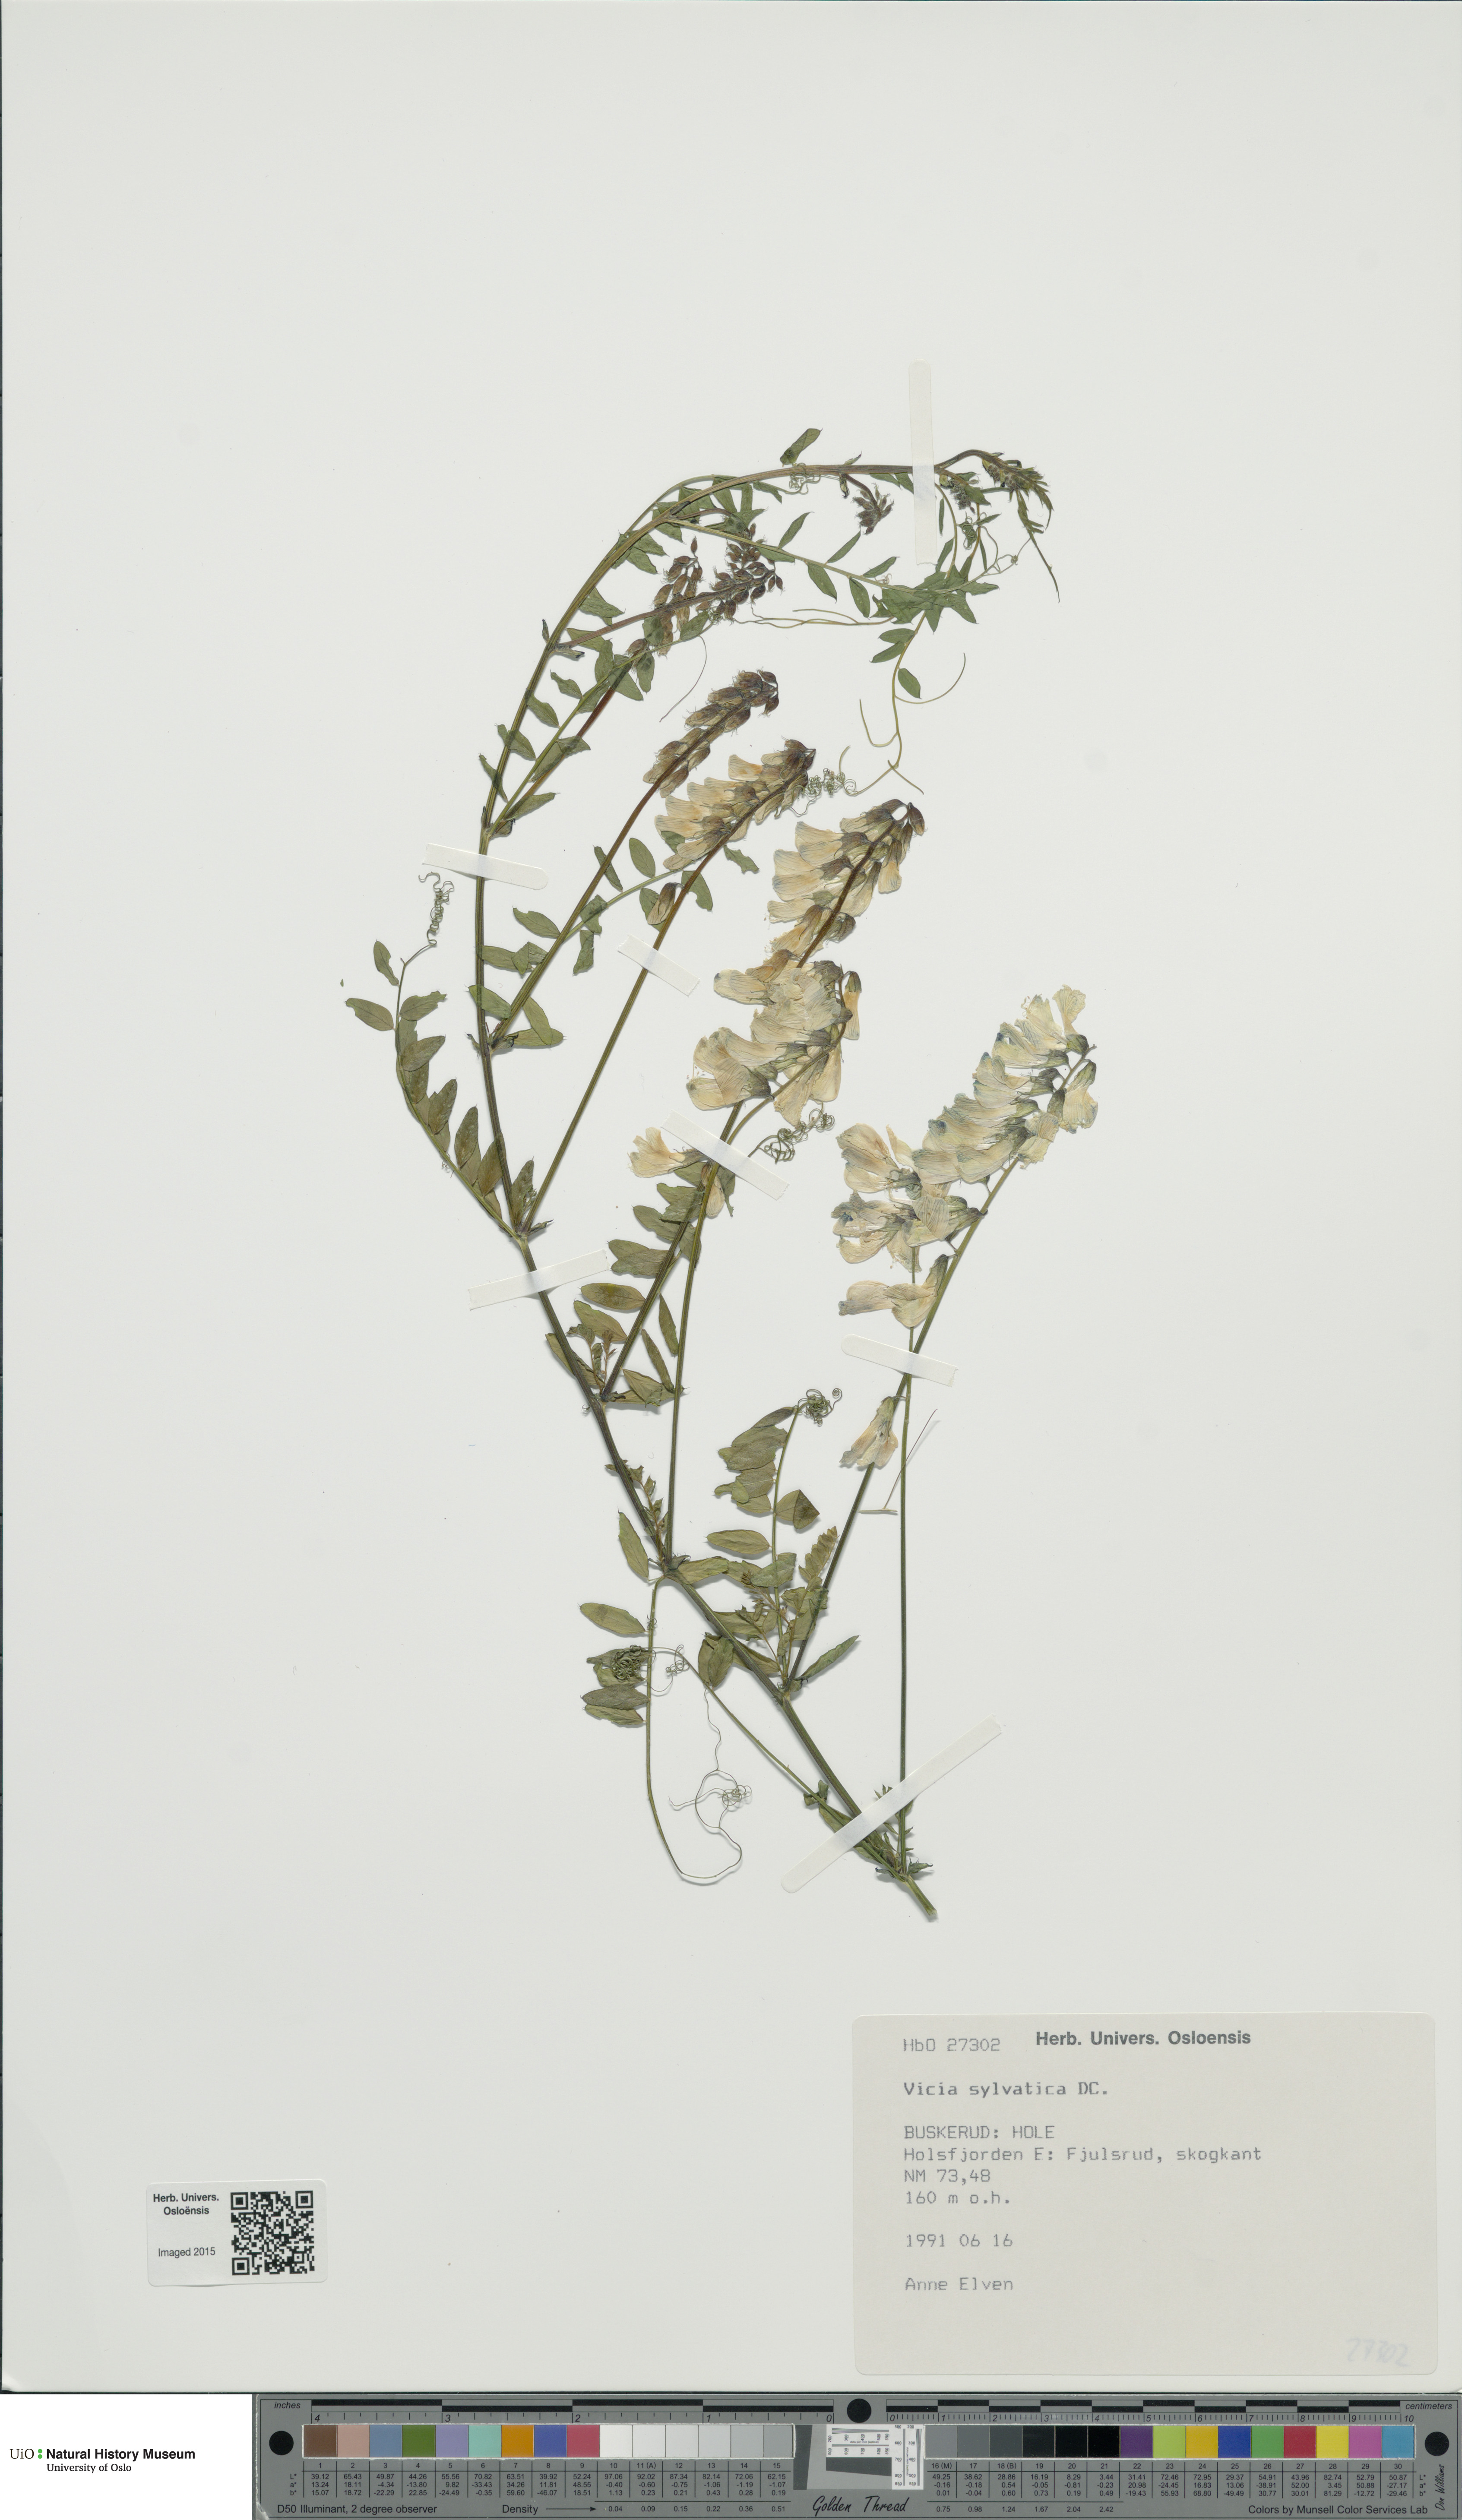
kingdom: Plantae
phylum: Tracheophyta
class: Magnoliopsida
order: Fabales
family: Fabaceae
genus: Vicia
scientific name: Vicia sylvatica
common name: Wood vetch
